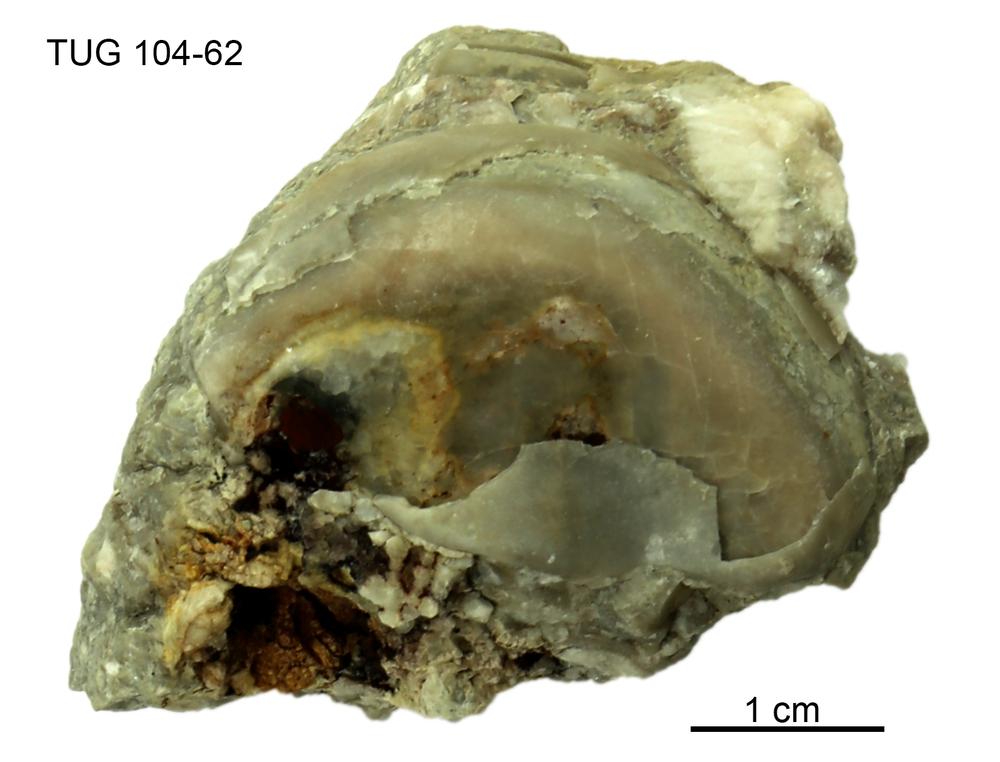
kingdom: Animalia
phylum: Arthropoda
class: Trilobita
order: Corynexochida
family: Illaenidae
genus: Stenopareia
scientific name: Stenopareia linnarssoni
